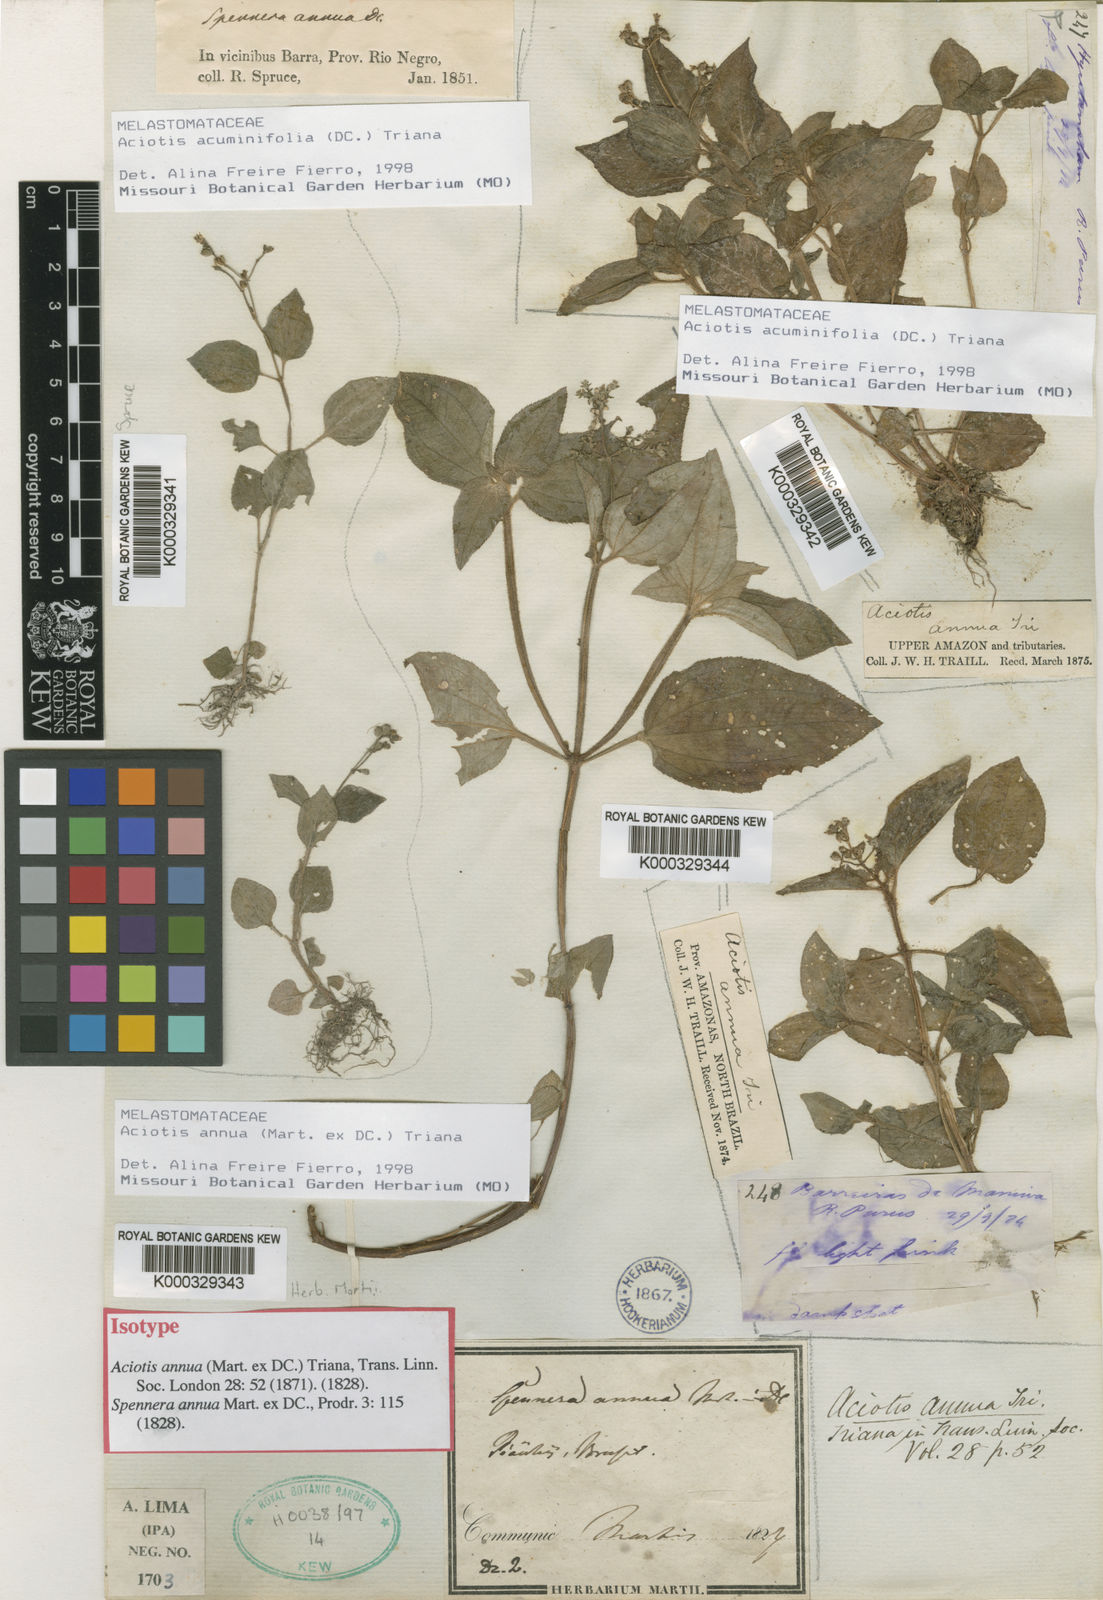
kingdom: Plantae
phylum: Tracheophyta
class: Magnoliopsida
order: Myrtales
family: Melastomataceae
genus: Aciotis
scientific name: Aciotis annua
